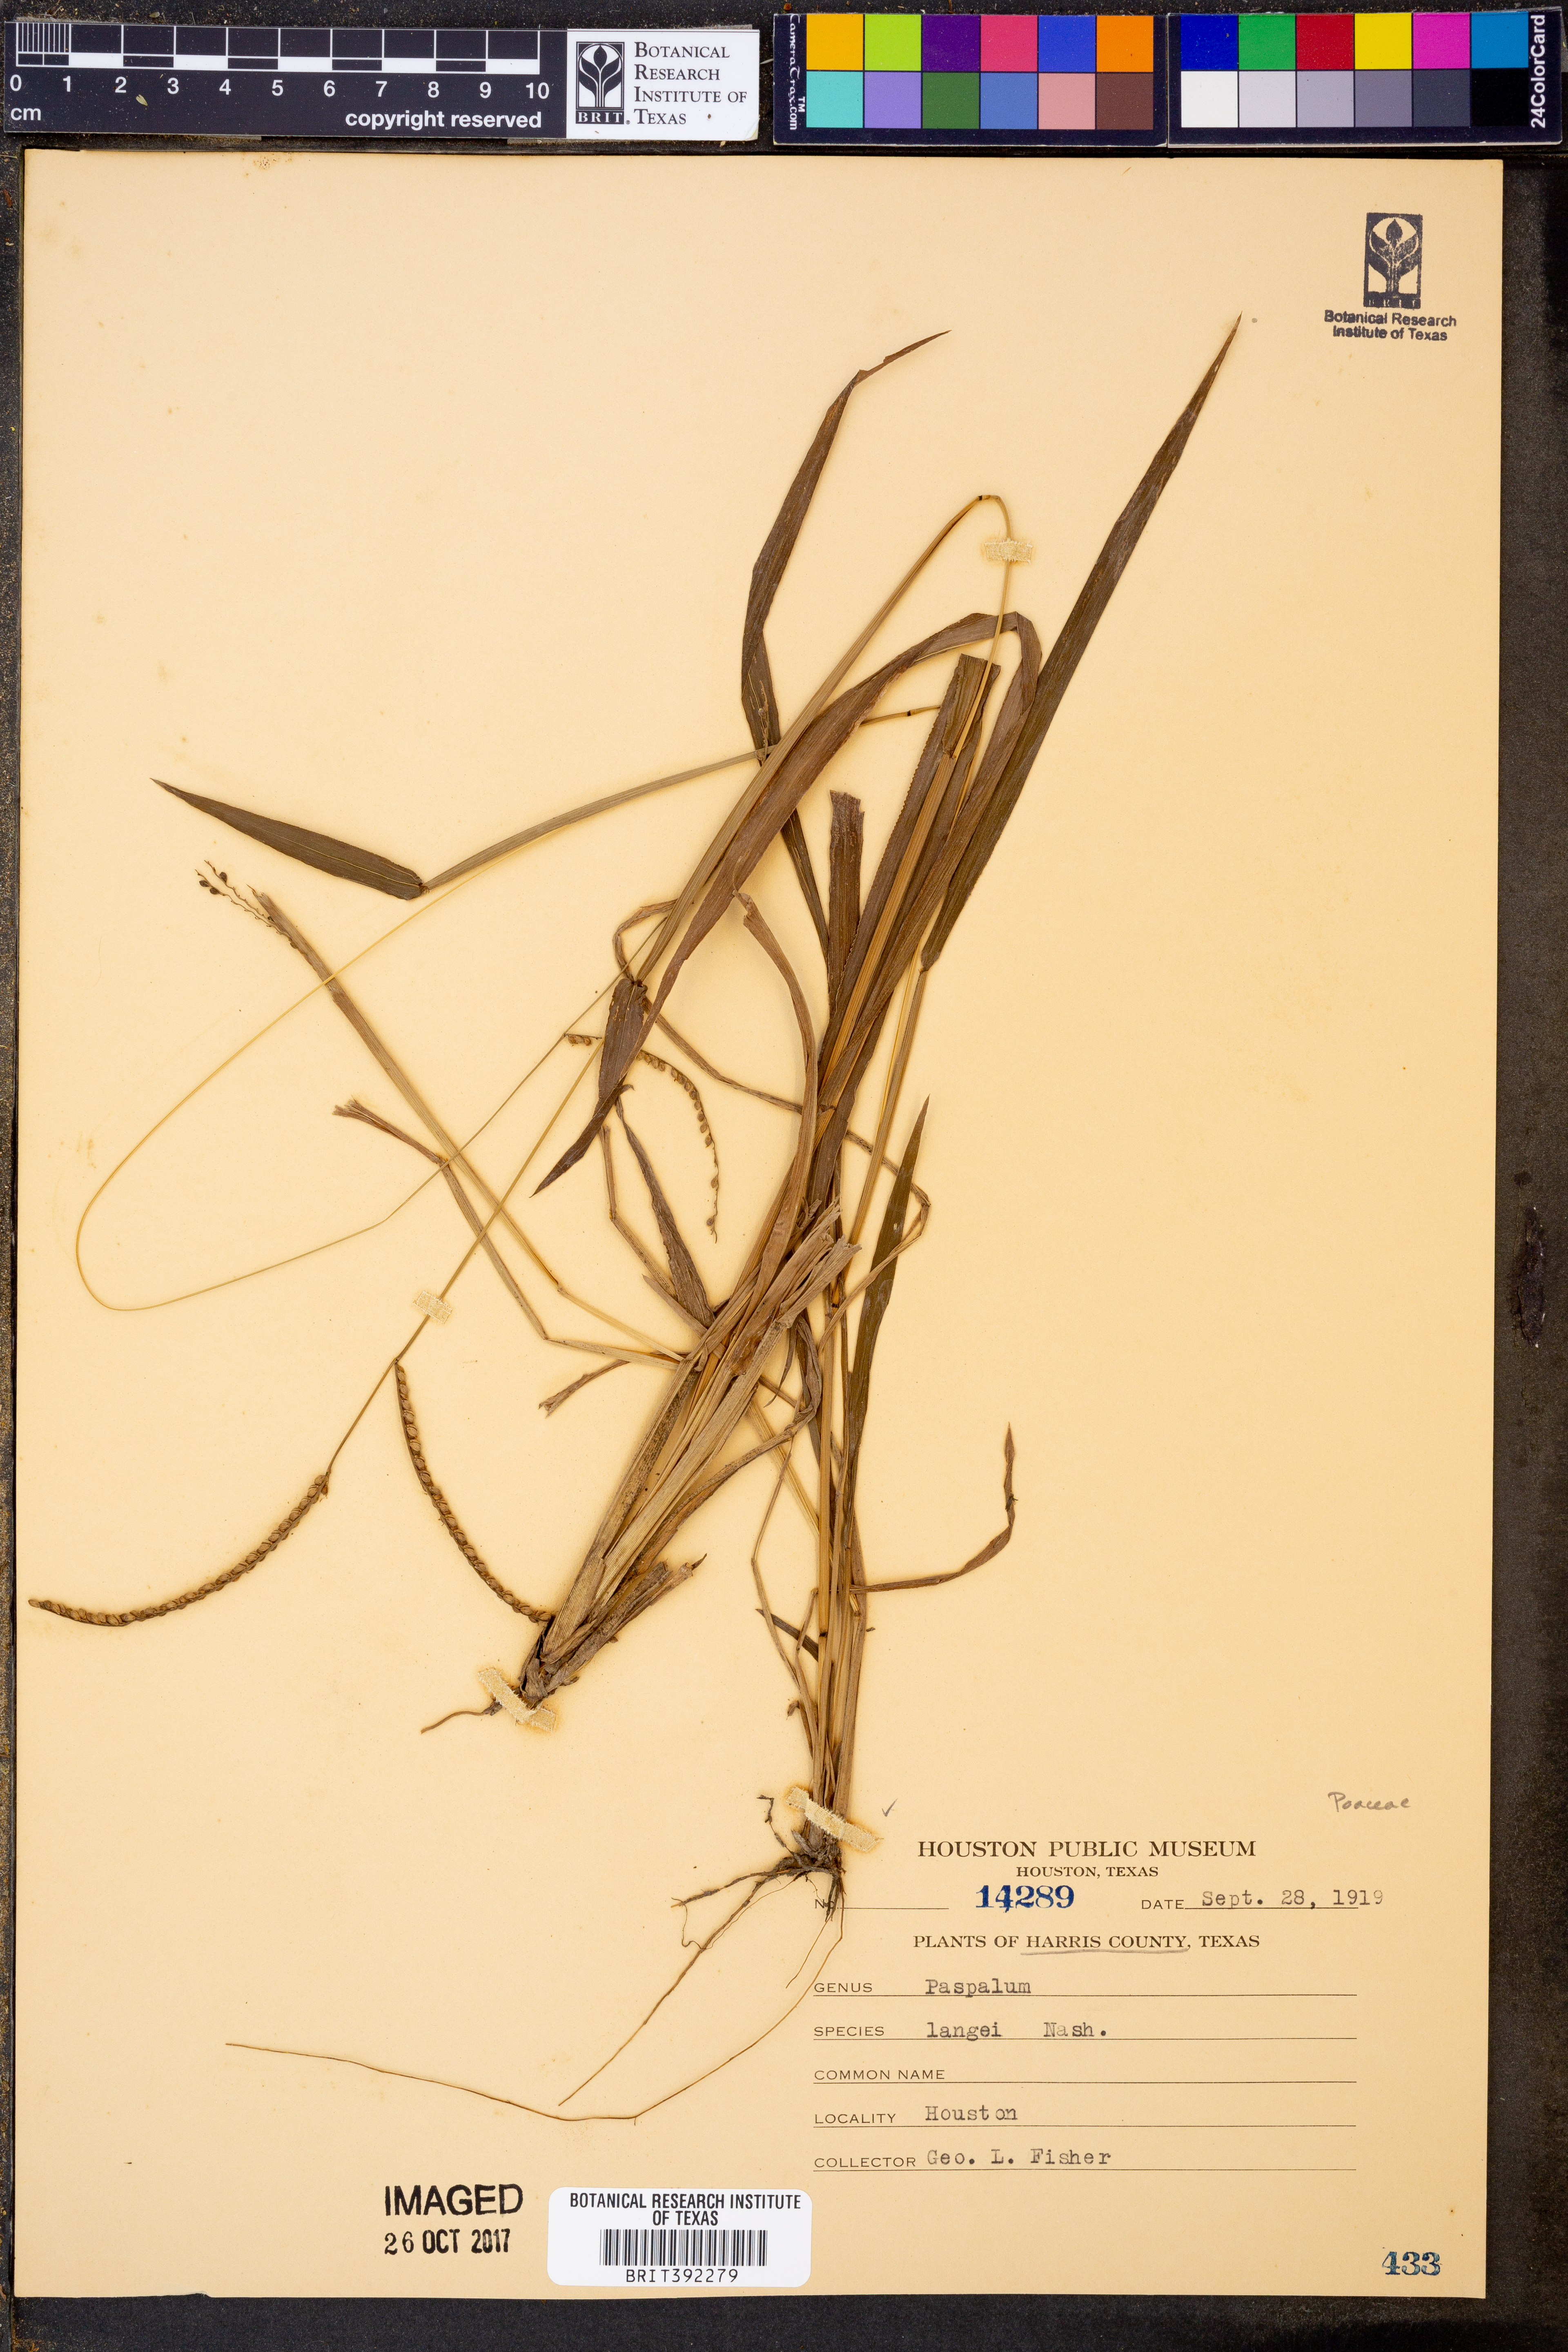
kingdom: Plantae
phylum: Tracheophyta
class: Liliopsida
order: Poales
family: Poaceae
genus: Paspalum
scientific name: Paspalum langei
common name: Rusty-seed paspalum
